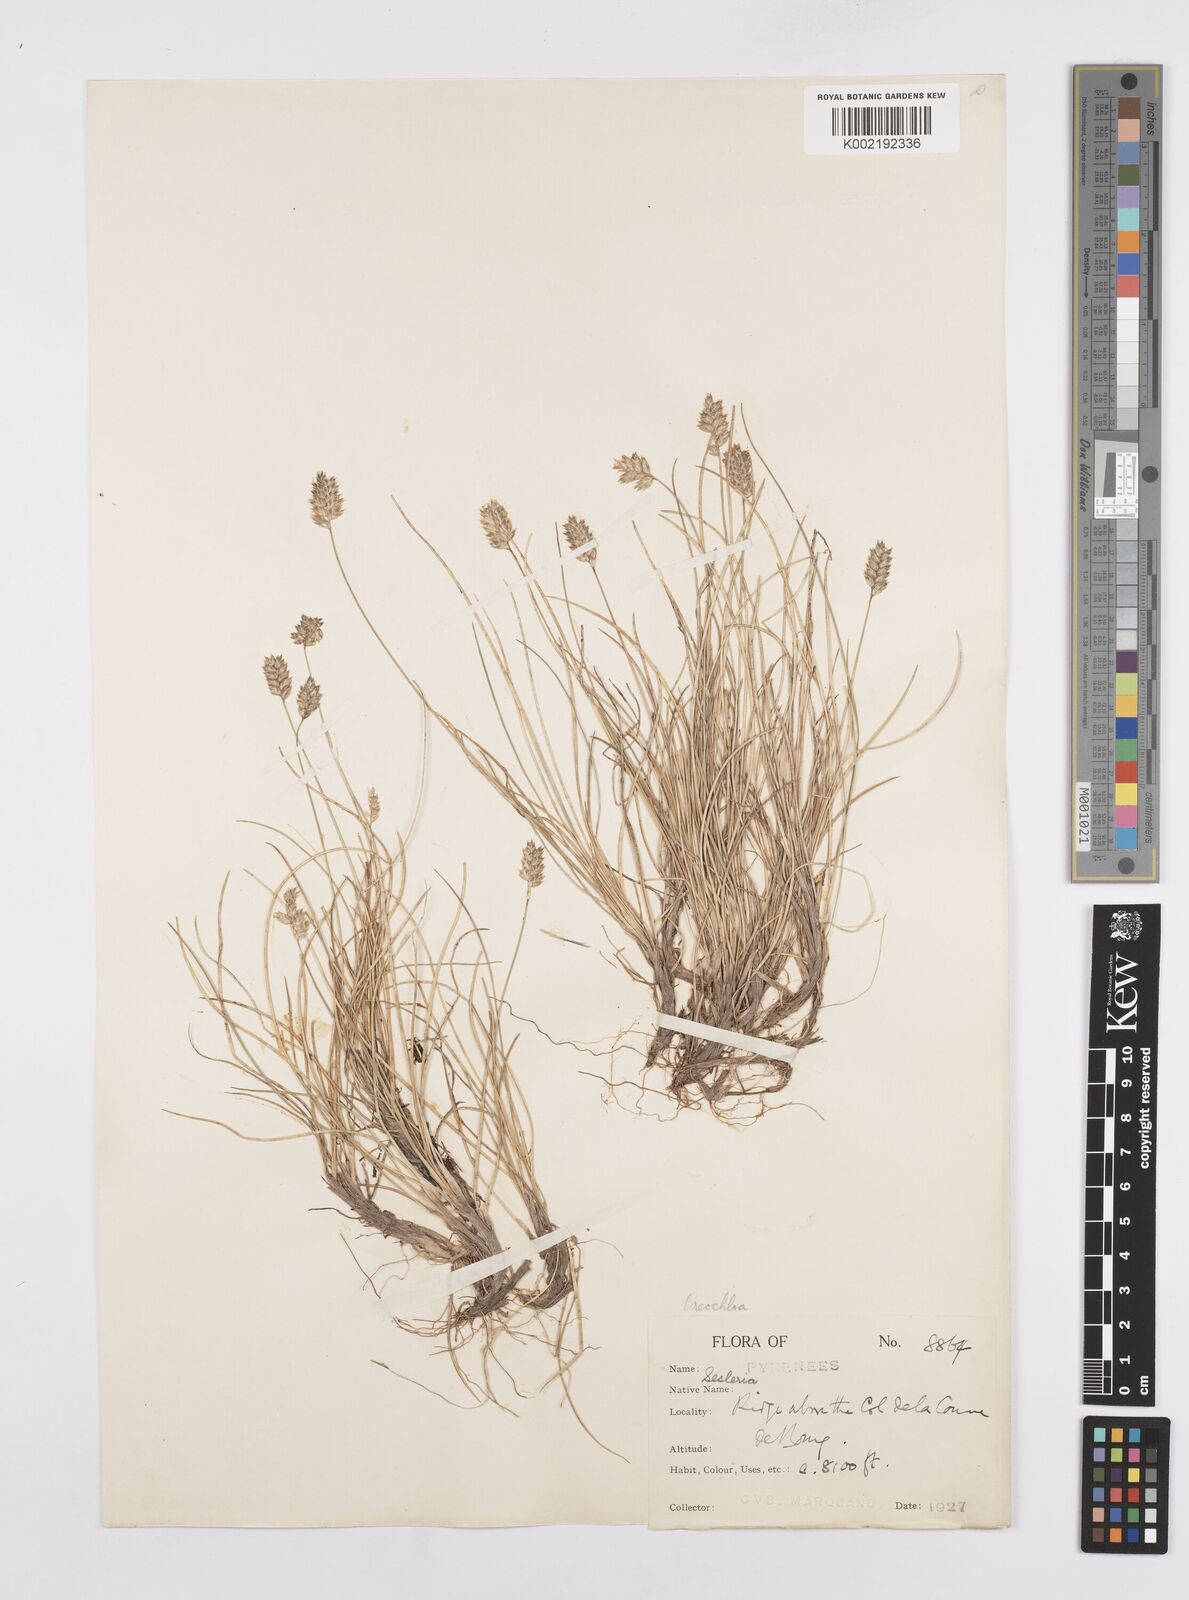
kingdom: Plantae
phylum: Tracheophyta
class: Liliopsida
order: Poales
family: Poaceae
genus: Oreochloa
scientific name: Oreochloa elegans
